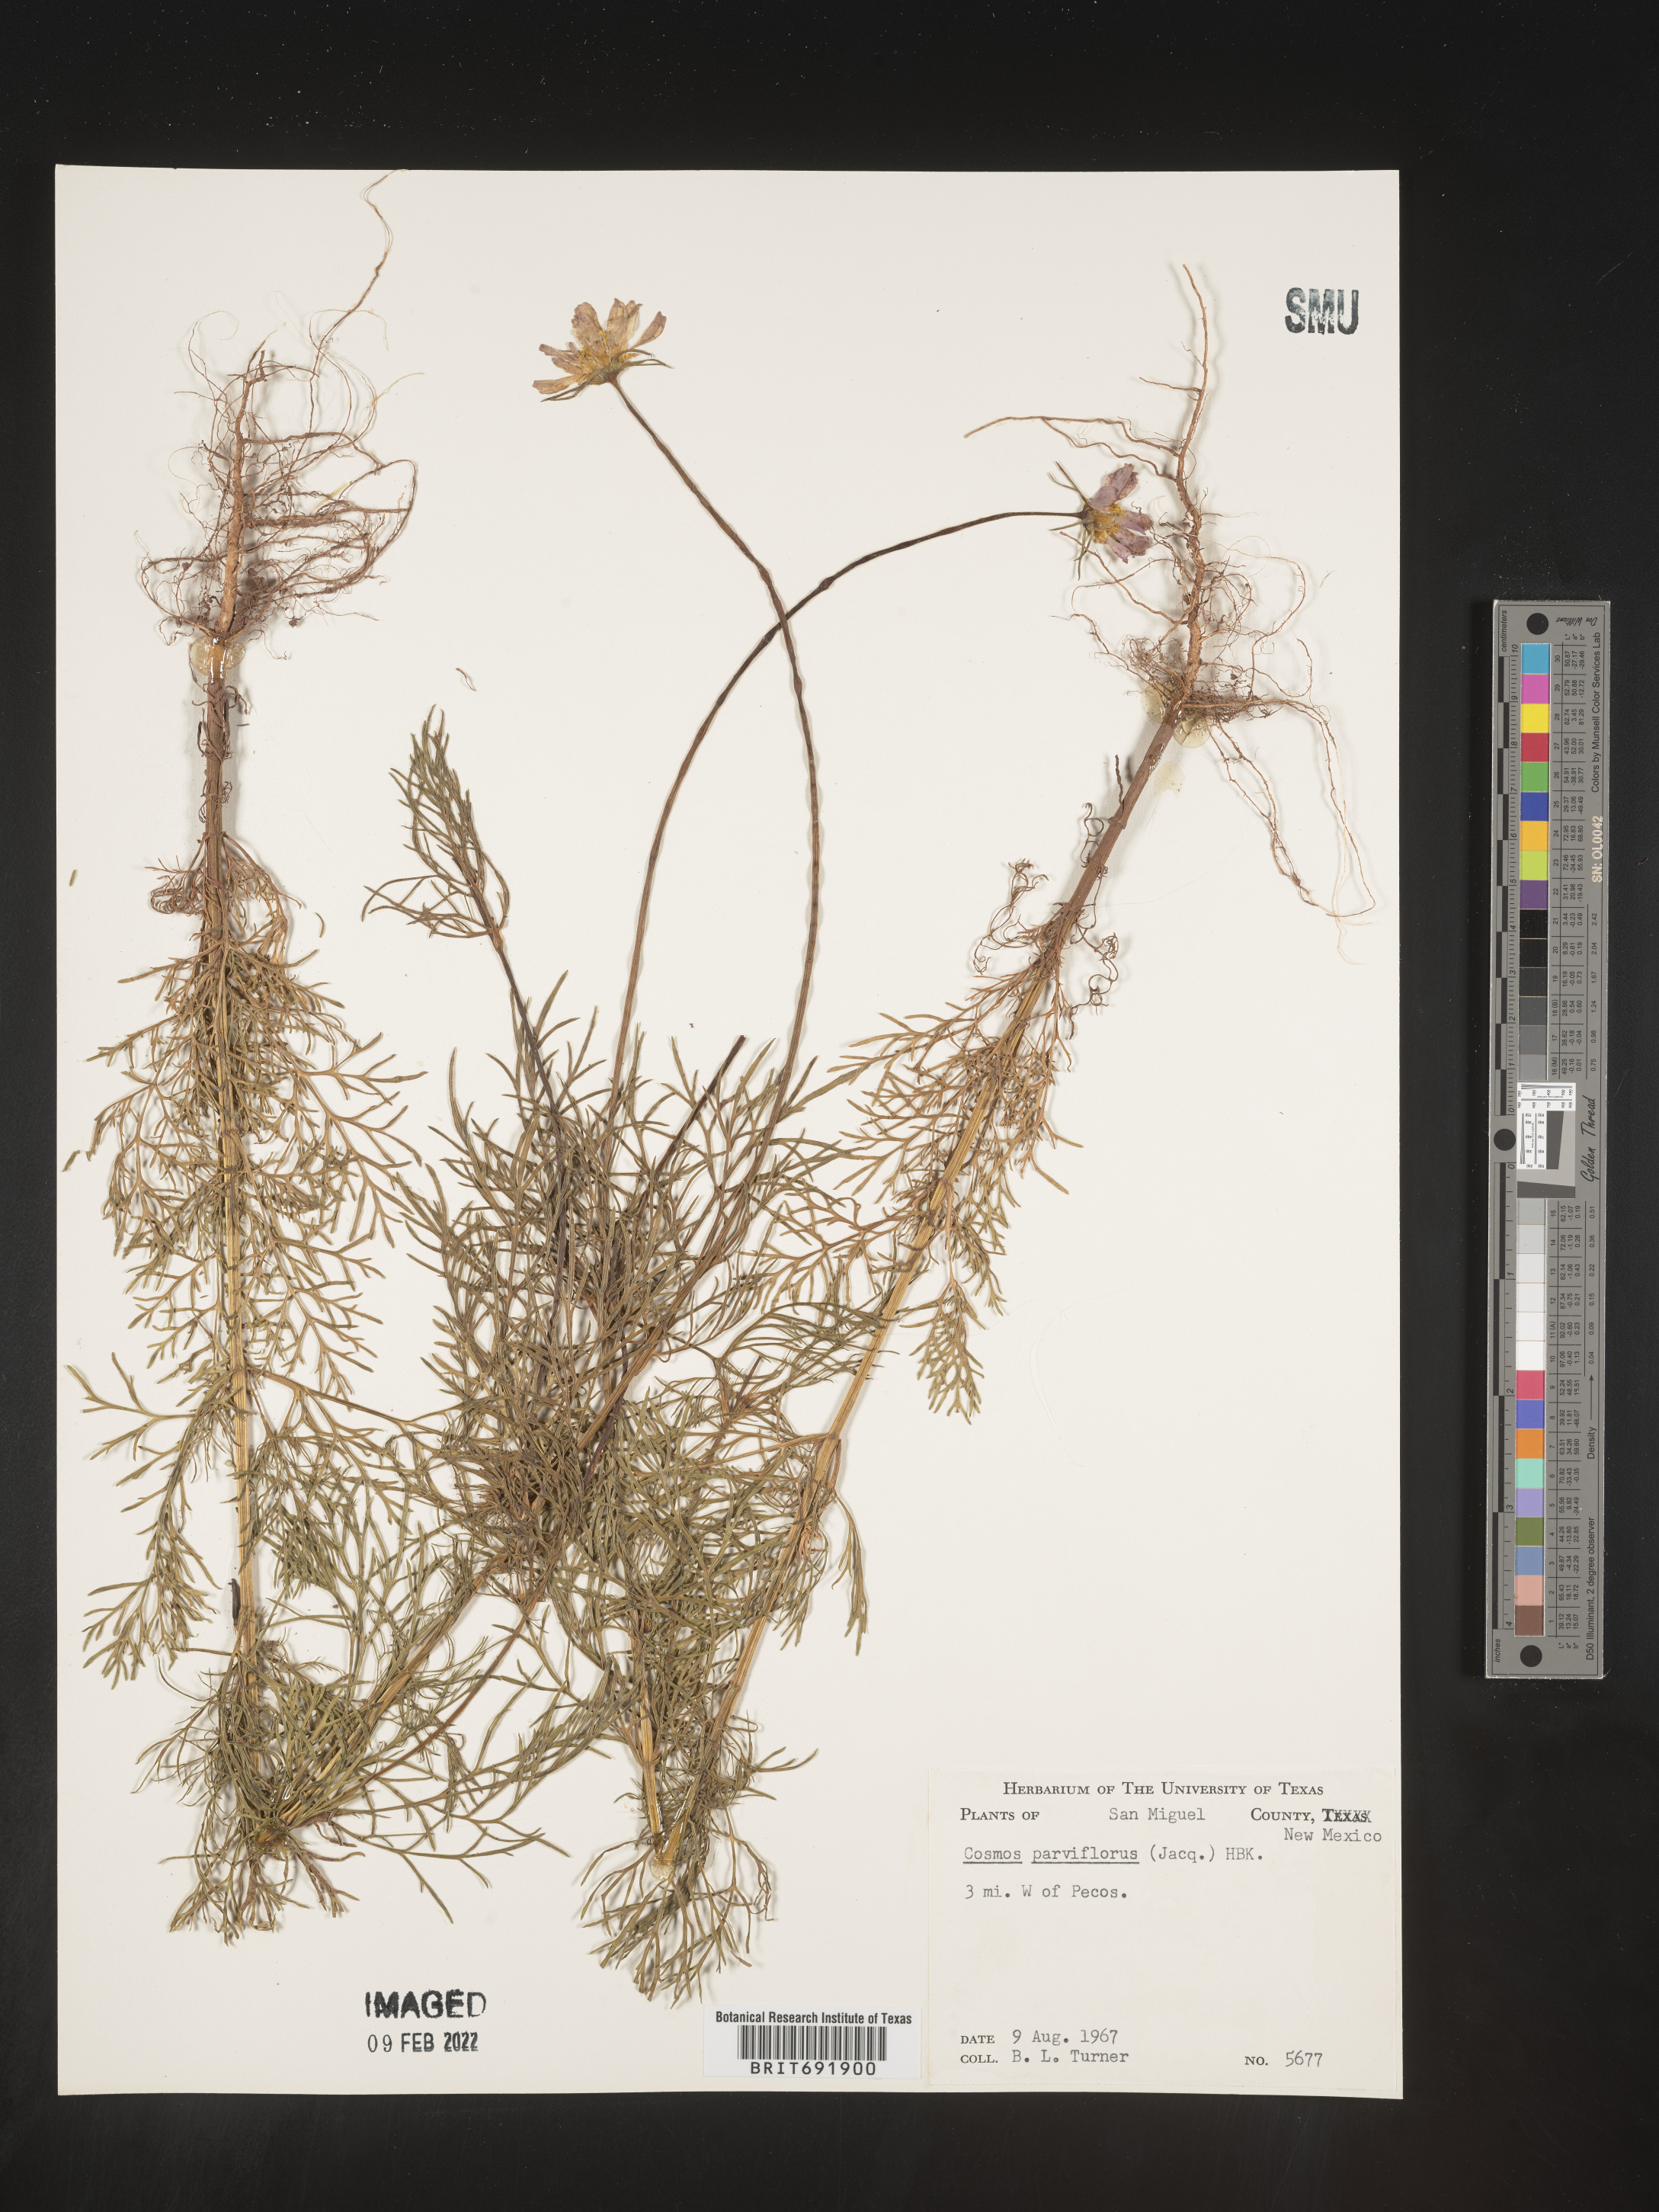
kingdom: Plantae
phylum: Tracheophyta
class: Magnoliopsida
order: Asterales
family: Asteraceae
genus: Cosmos
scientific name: Cosmos
